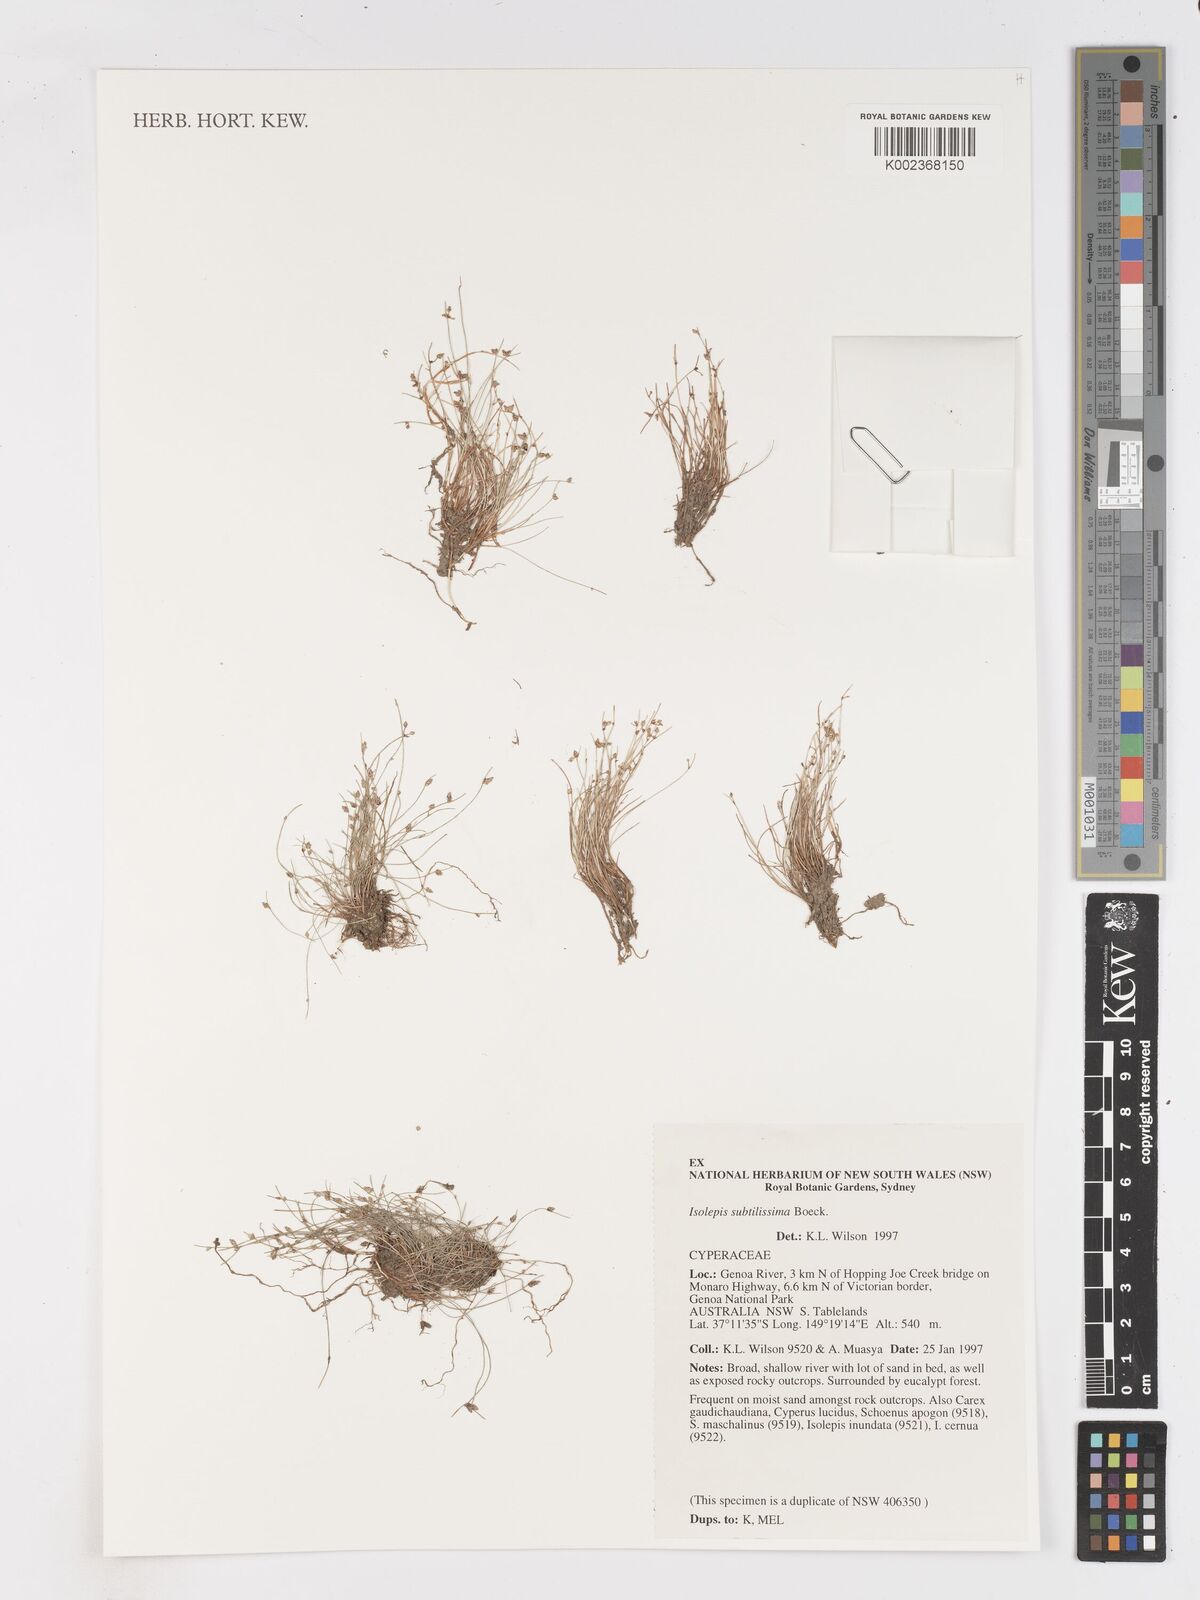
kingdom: Plantae
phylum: Tracheophyta
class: Liliopsida
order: Poales
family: Cyperaceae
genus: Isolepis
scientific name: Isolepis subtilissima
